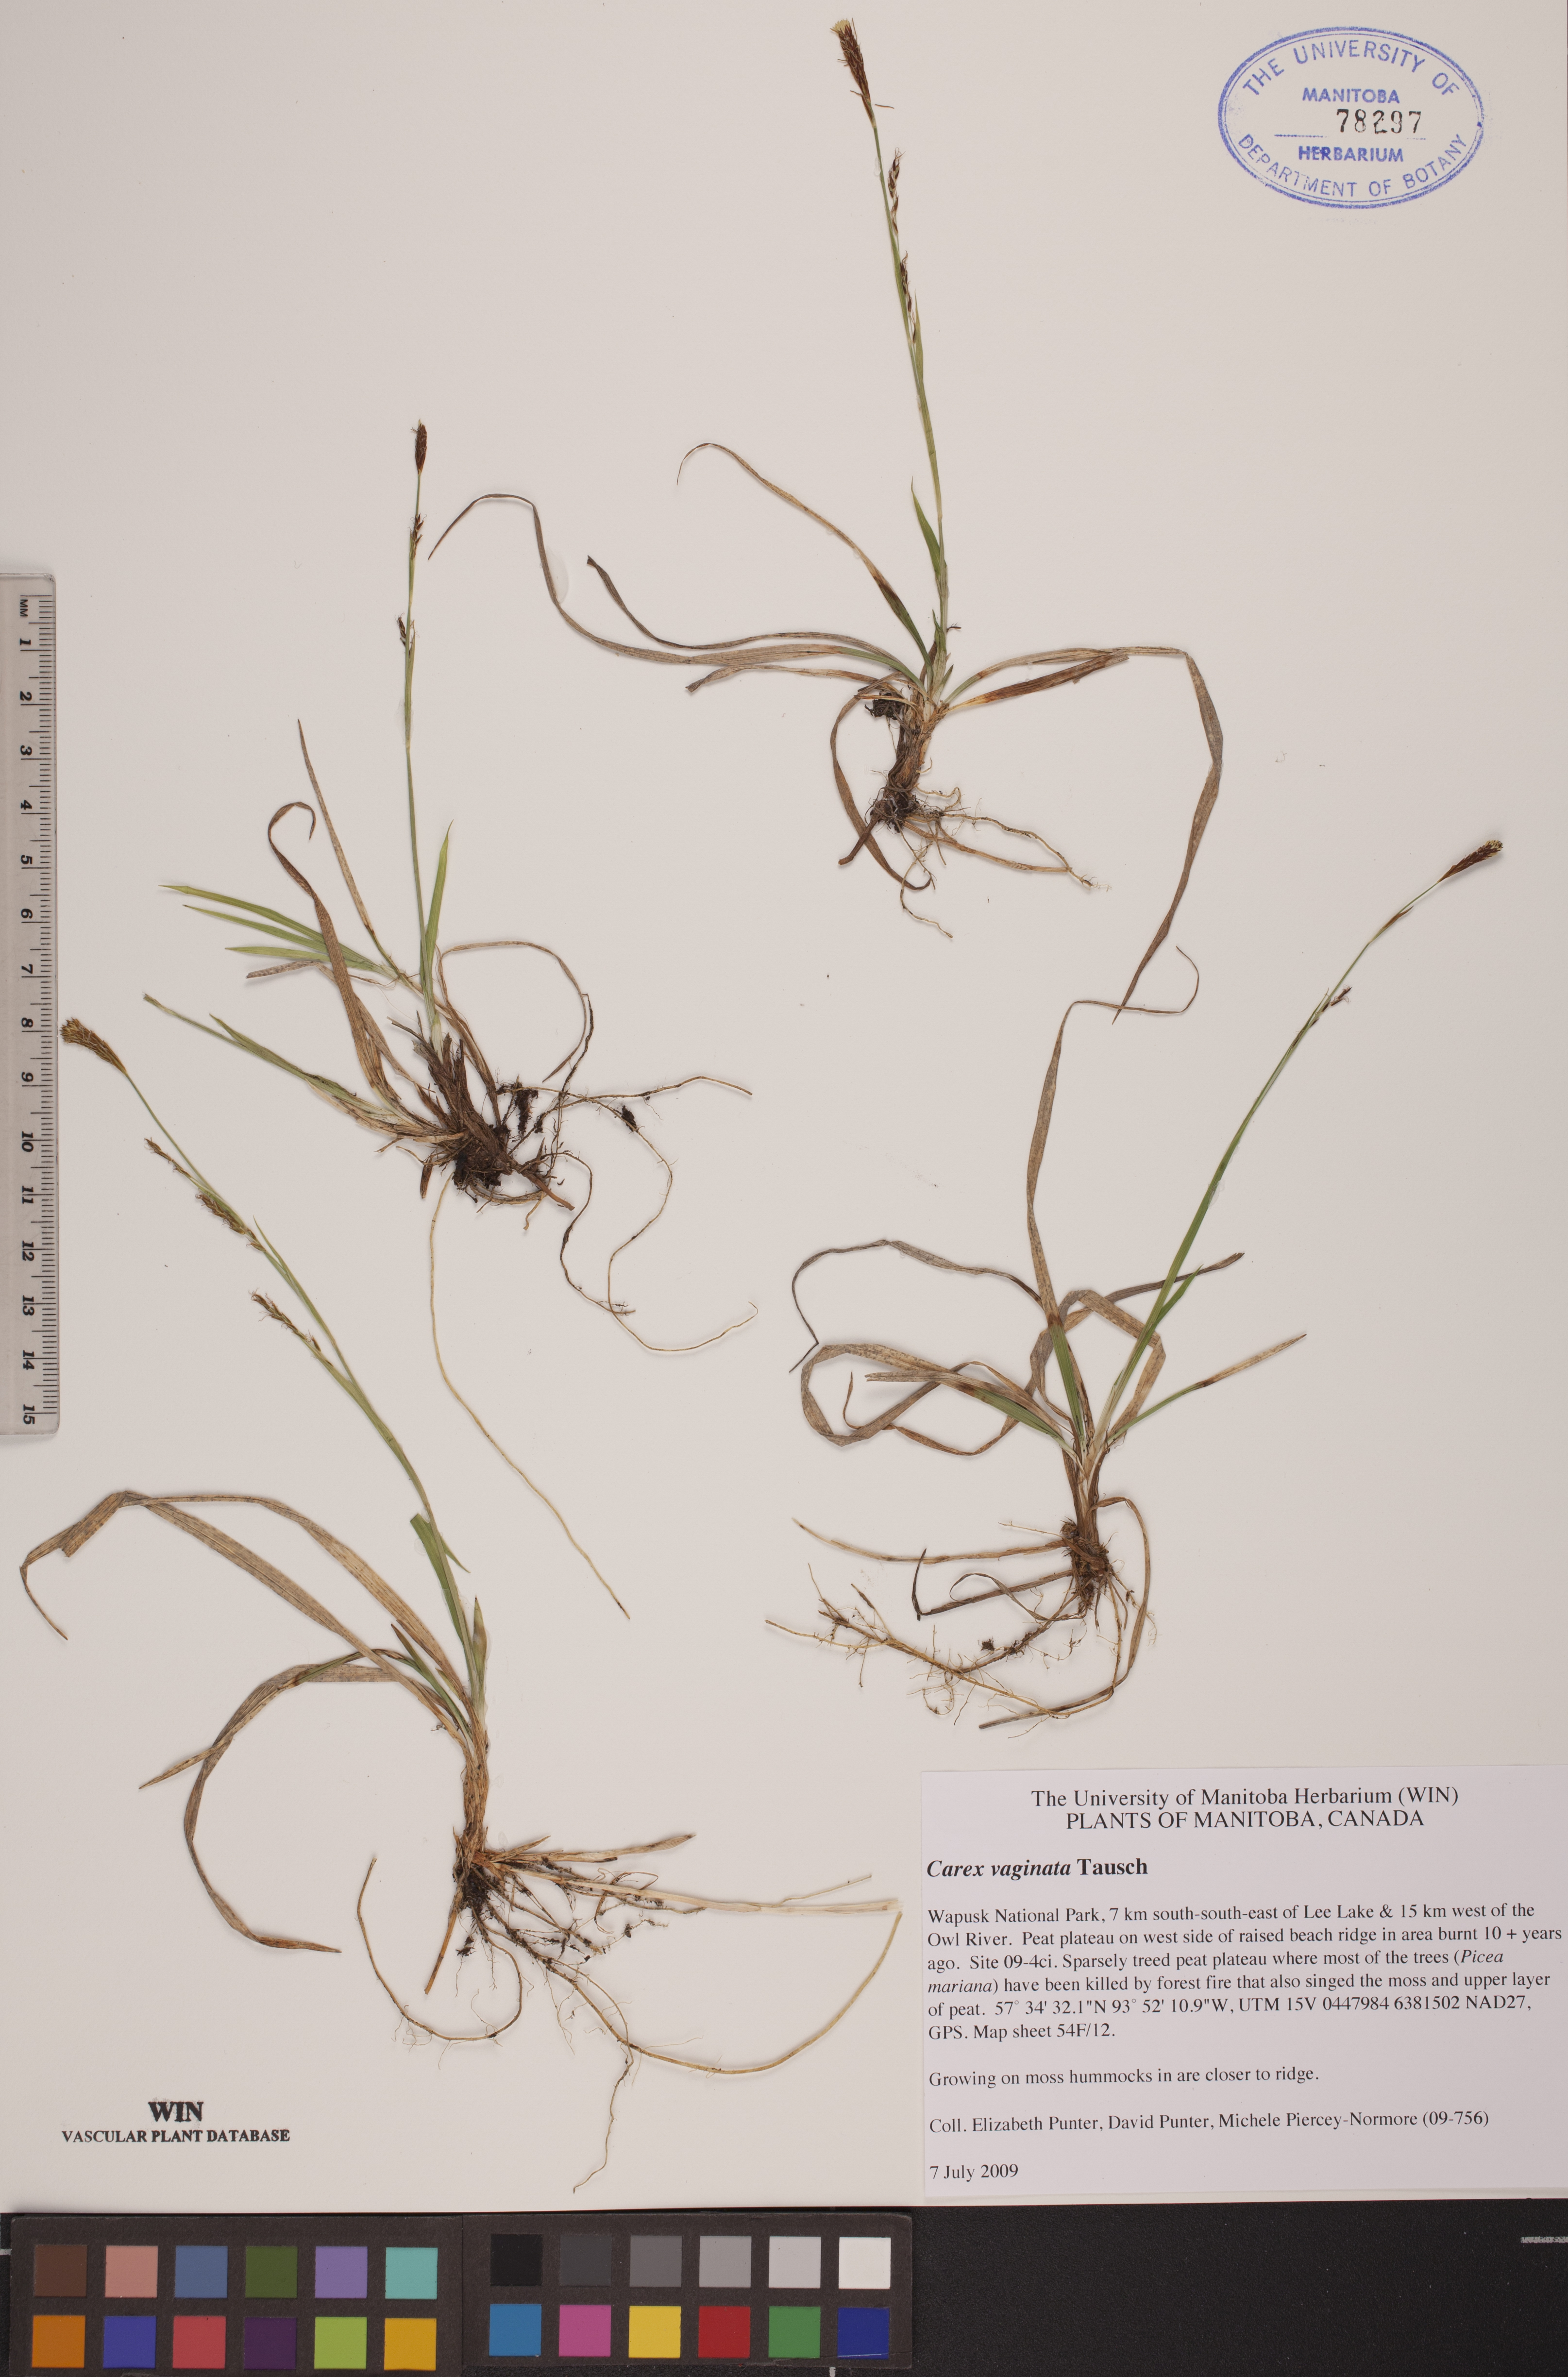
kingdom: Plantae
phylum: Tracheophyta
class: Liliopsida
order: Poales
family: Cyperaceae
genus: Carex
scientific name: Carex vaginata
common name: Sheathed sedge
